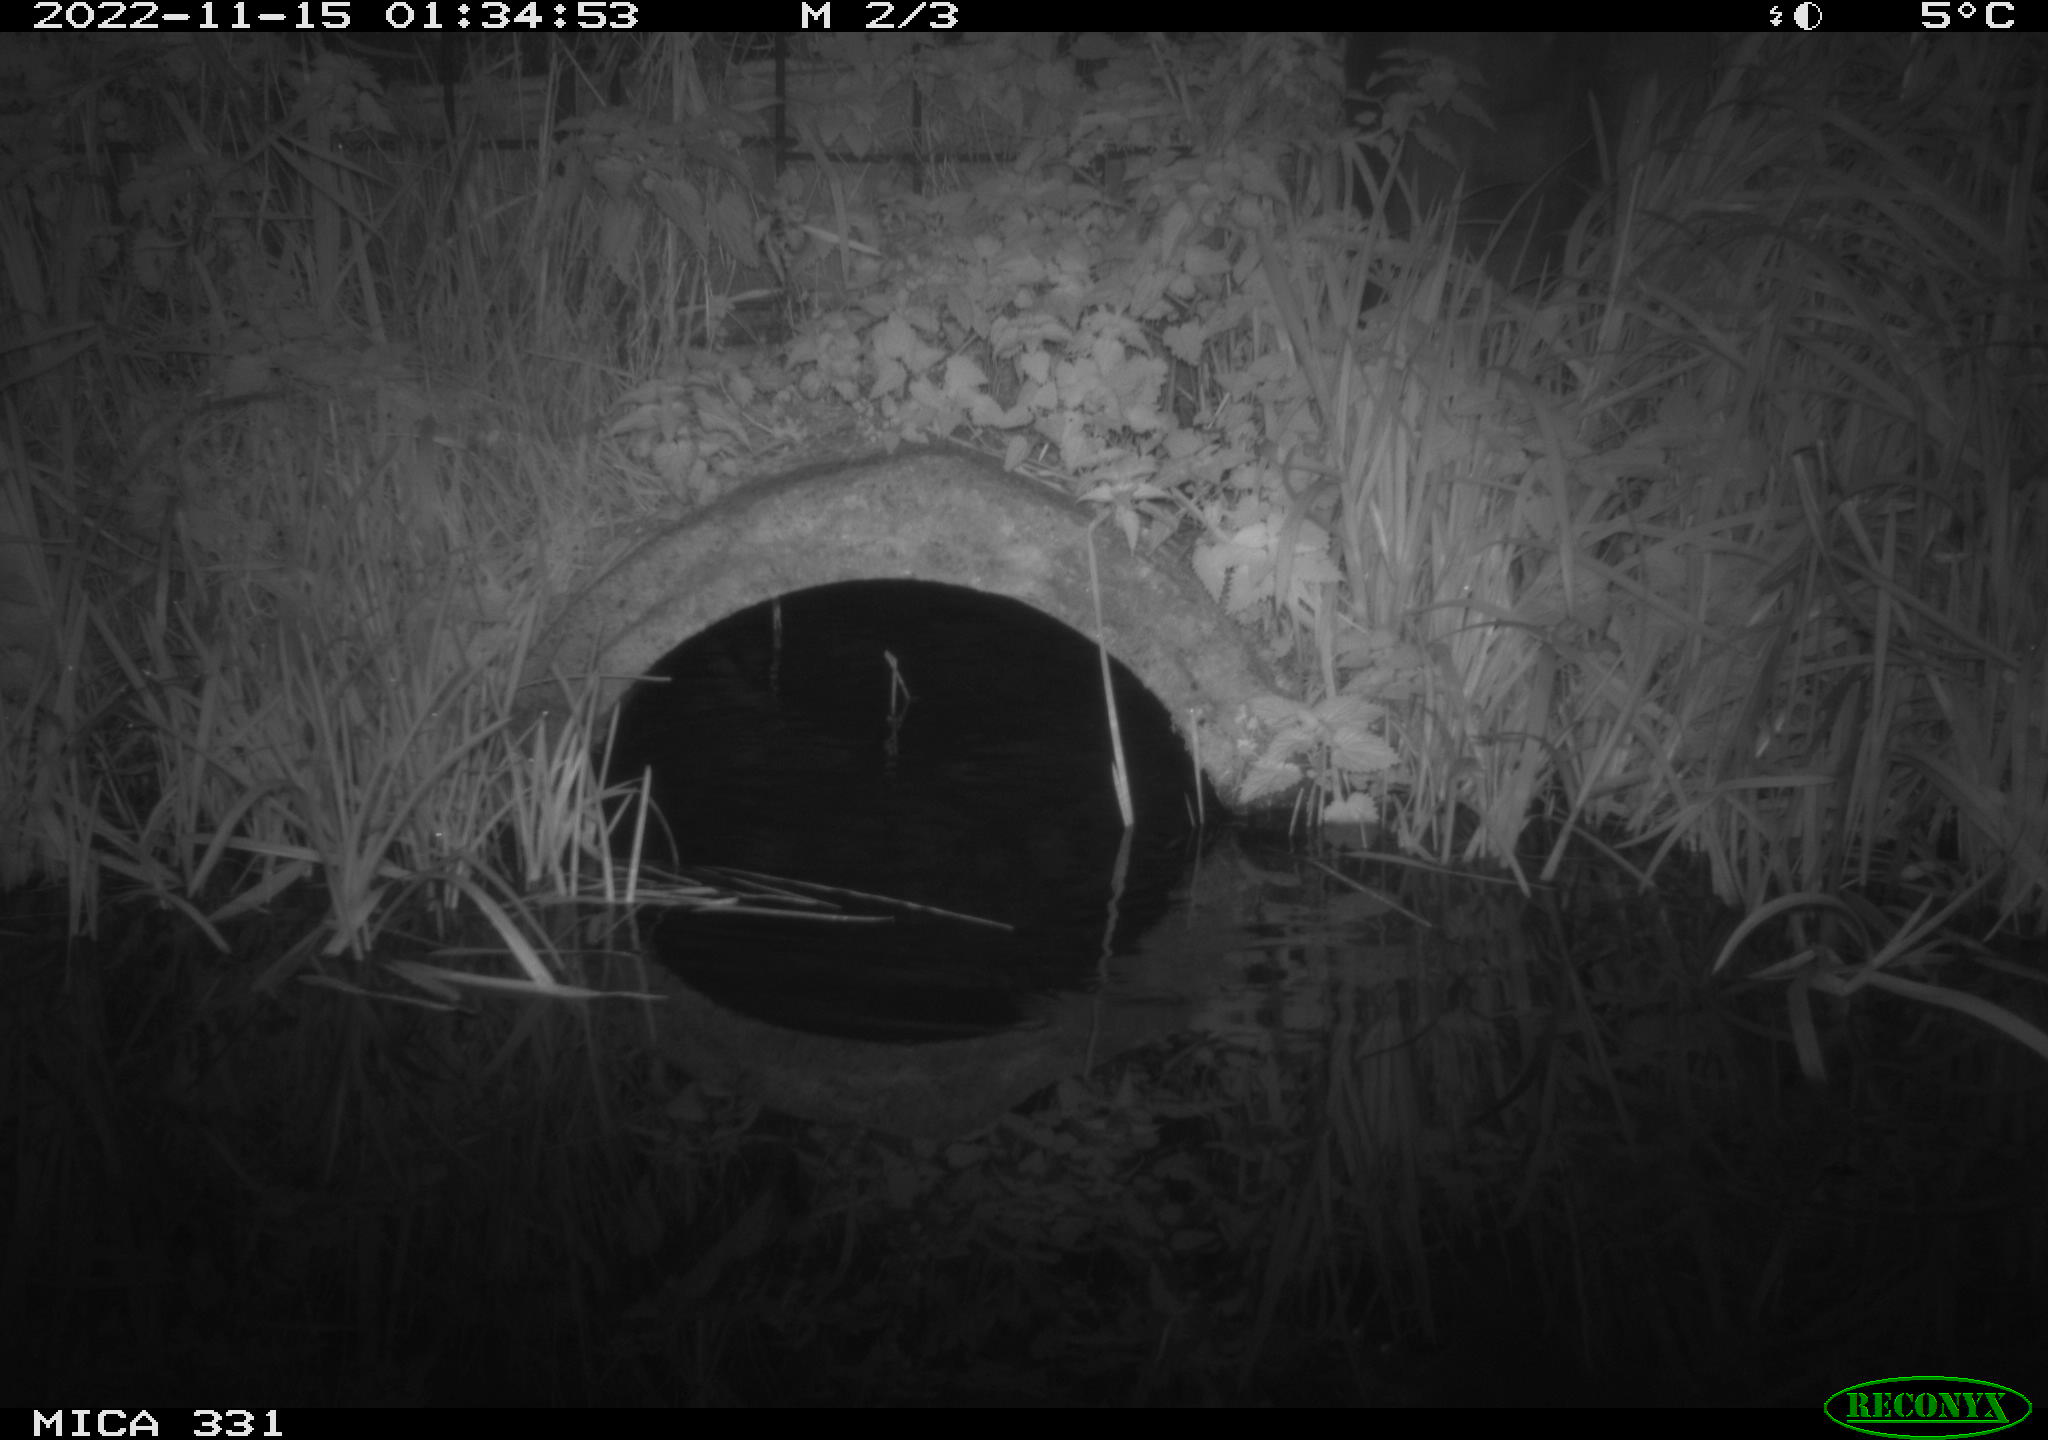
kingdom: Animalia
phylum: Chordata
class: Mammalia
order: Rodentia
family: Muridae
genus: Rattus
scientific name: Rattus norvegicus
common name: Brown rat
